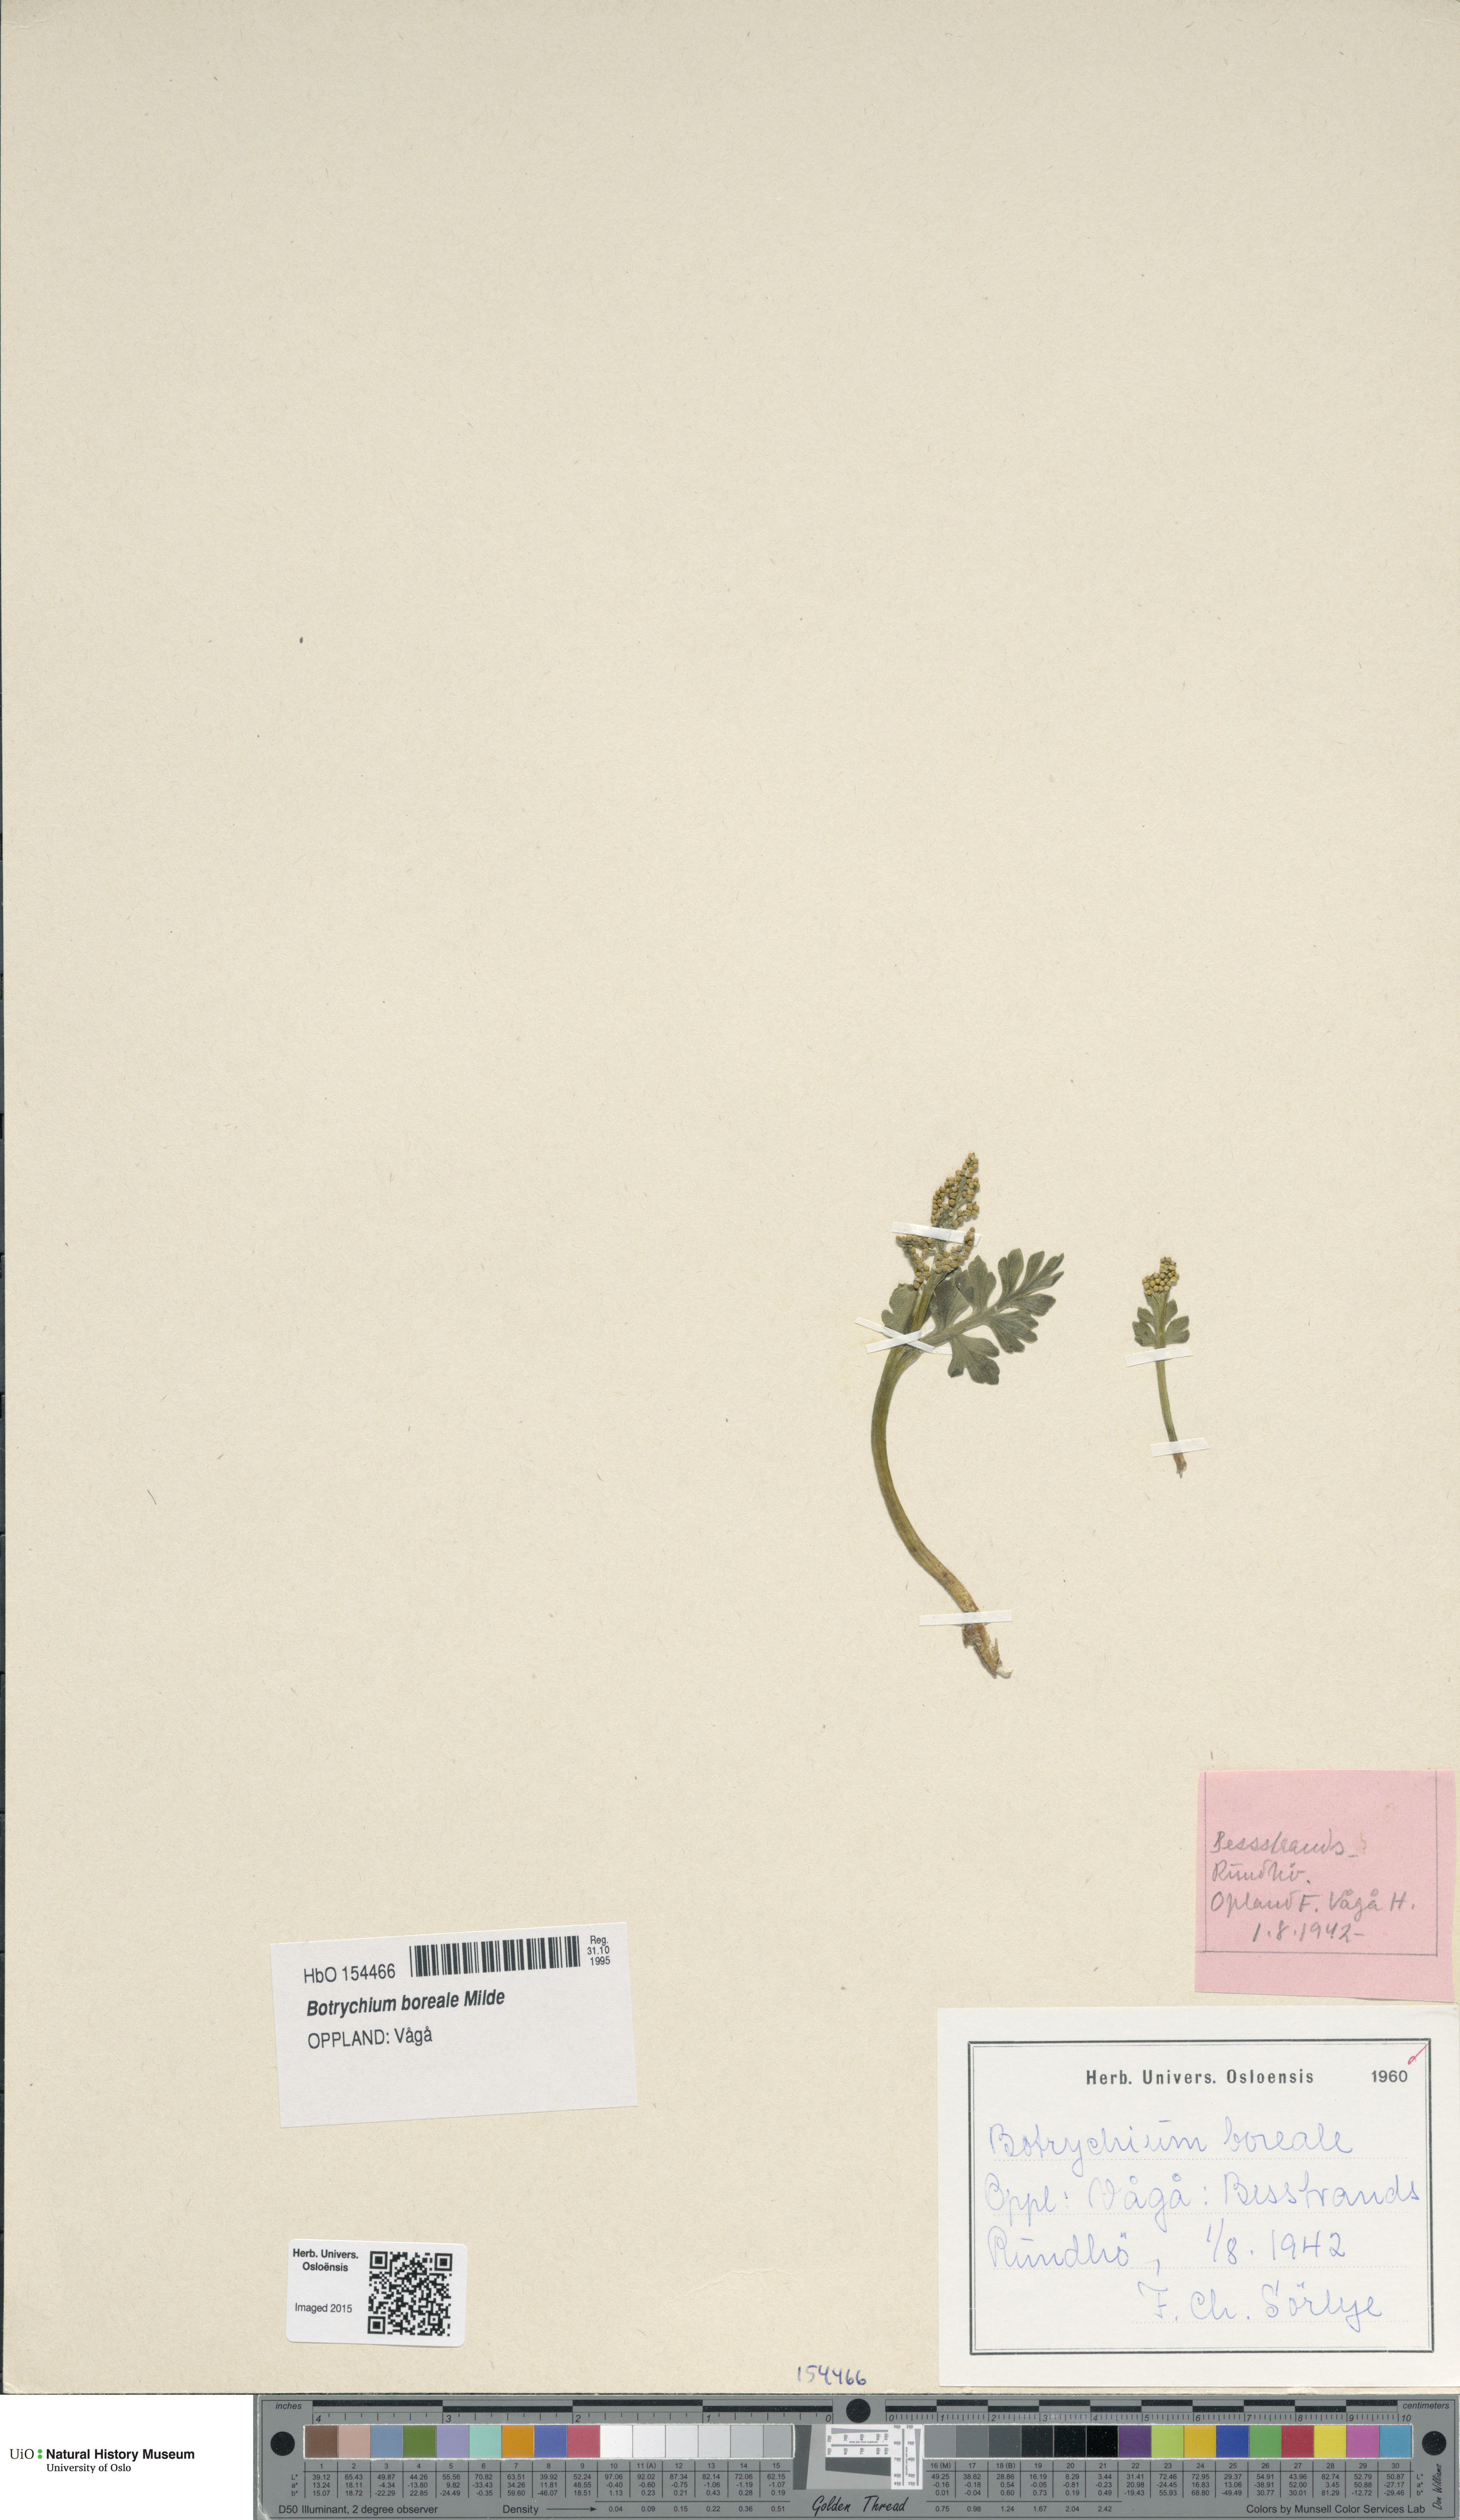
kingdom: Plantae
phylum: Tracheophyta
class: Polypodiopsida
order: Ophioglossales
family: Ophioglossaceae
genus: Botrychium
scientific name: Botrychium boreale
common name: Boreal moonwort
